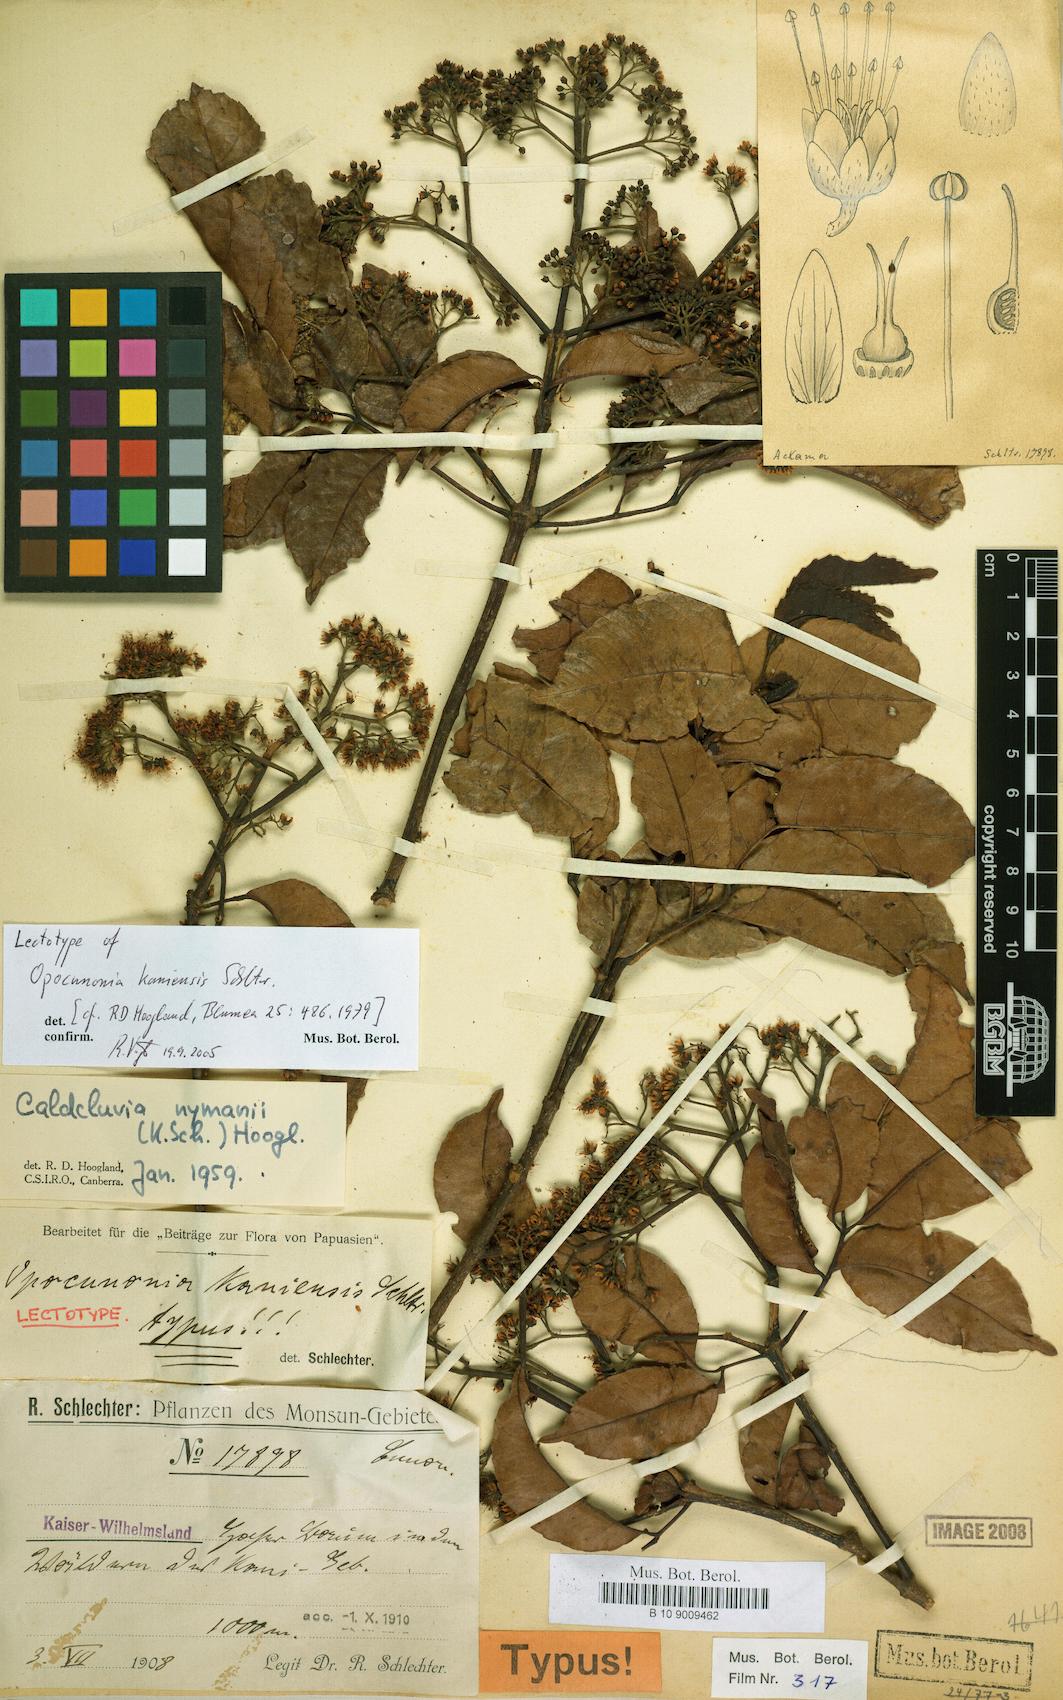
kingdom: Plantae
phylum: Tracheophyta
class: Magnoliopsida
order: Oxalidales
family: Cunoniaceae
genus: Opocunonia
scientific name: Opocunonia nymanii
